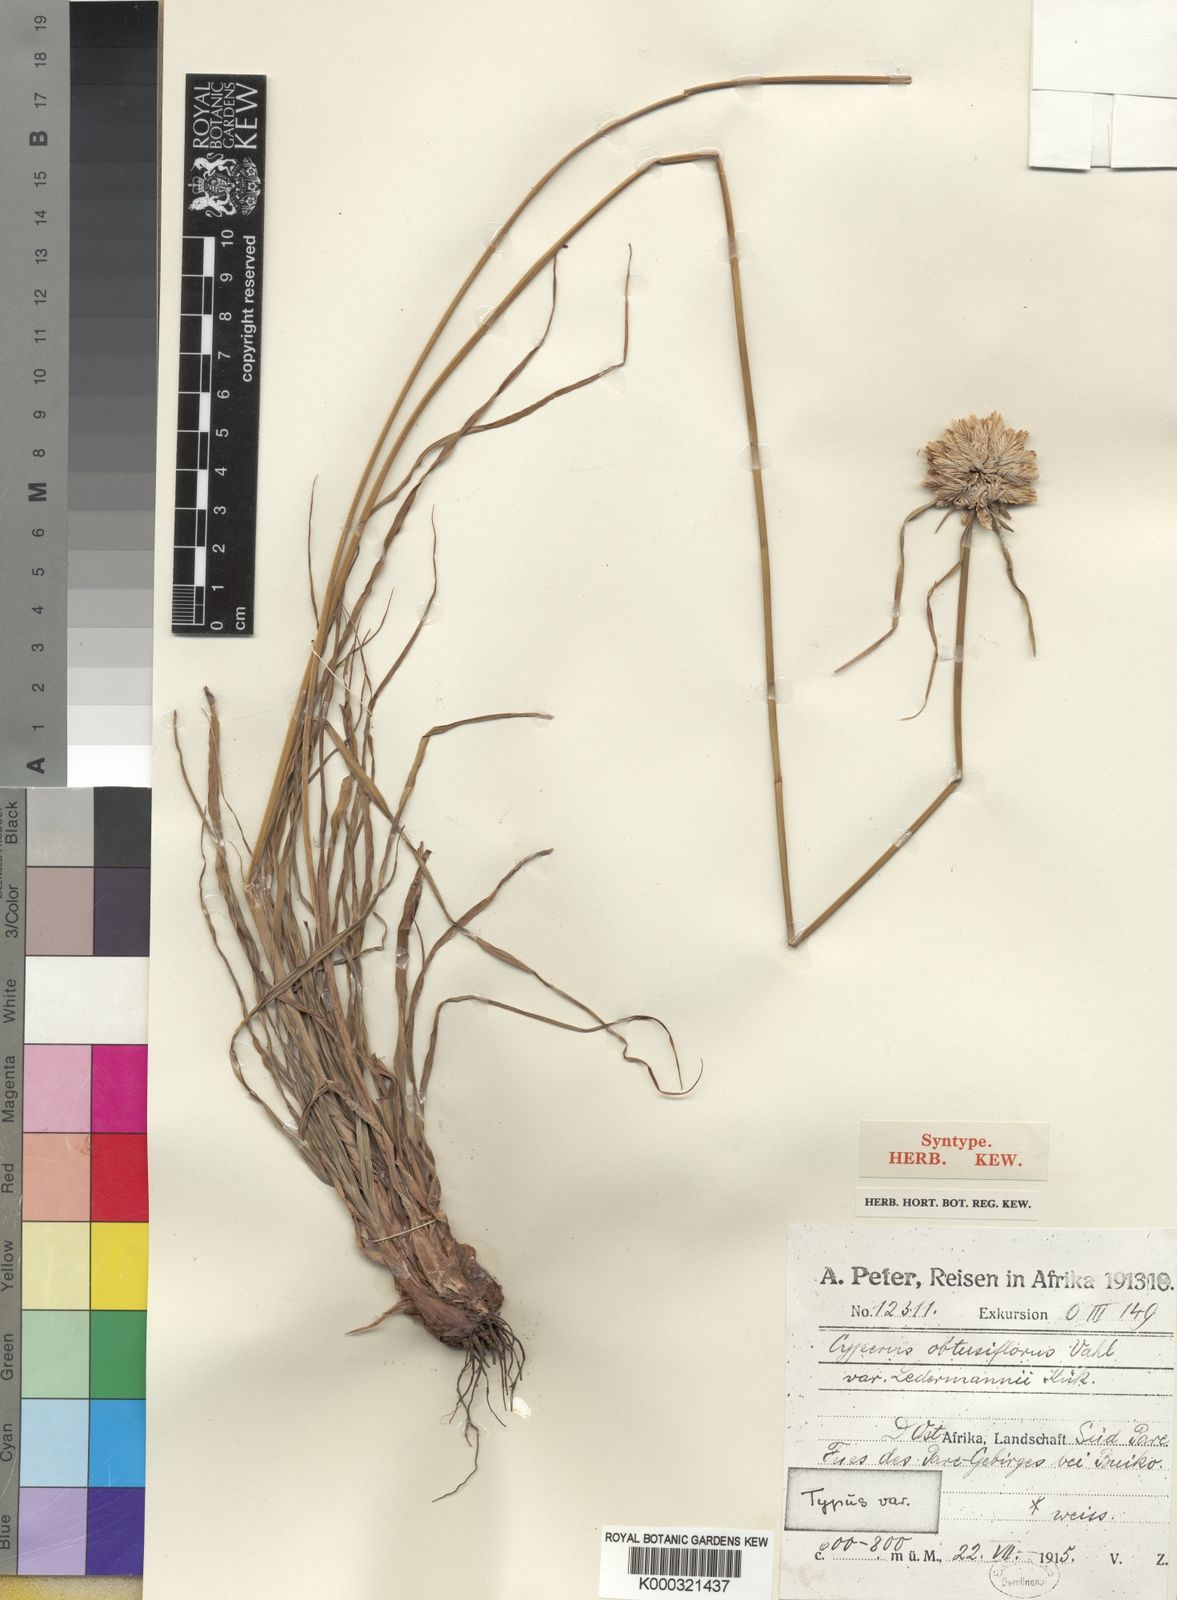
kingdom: Plantae
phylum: Tracheophyta
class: Liliopsida
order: Poales
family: Cyperaceae
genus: Cyperus
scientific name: Cyperus niveus
